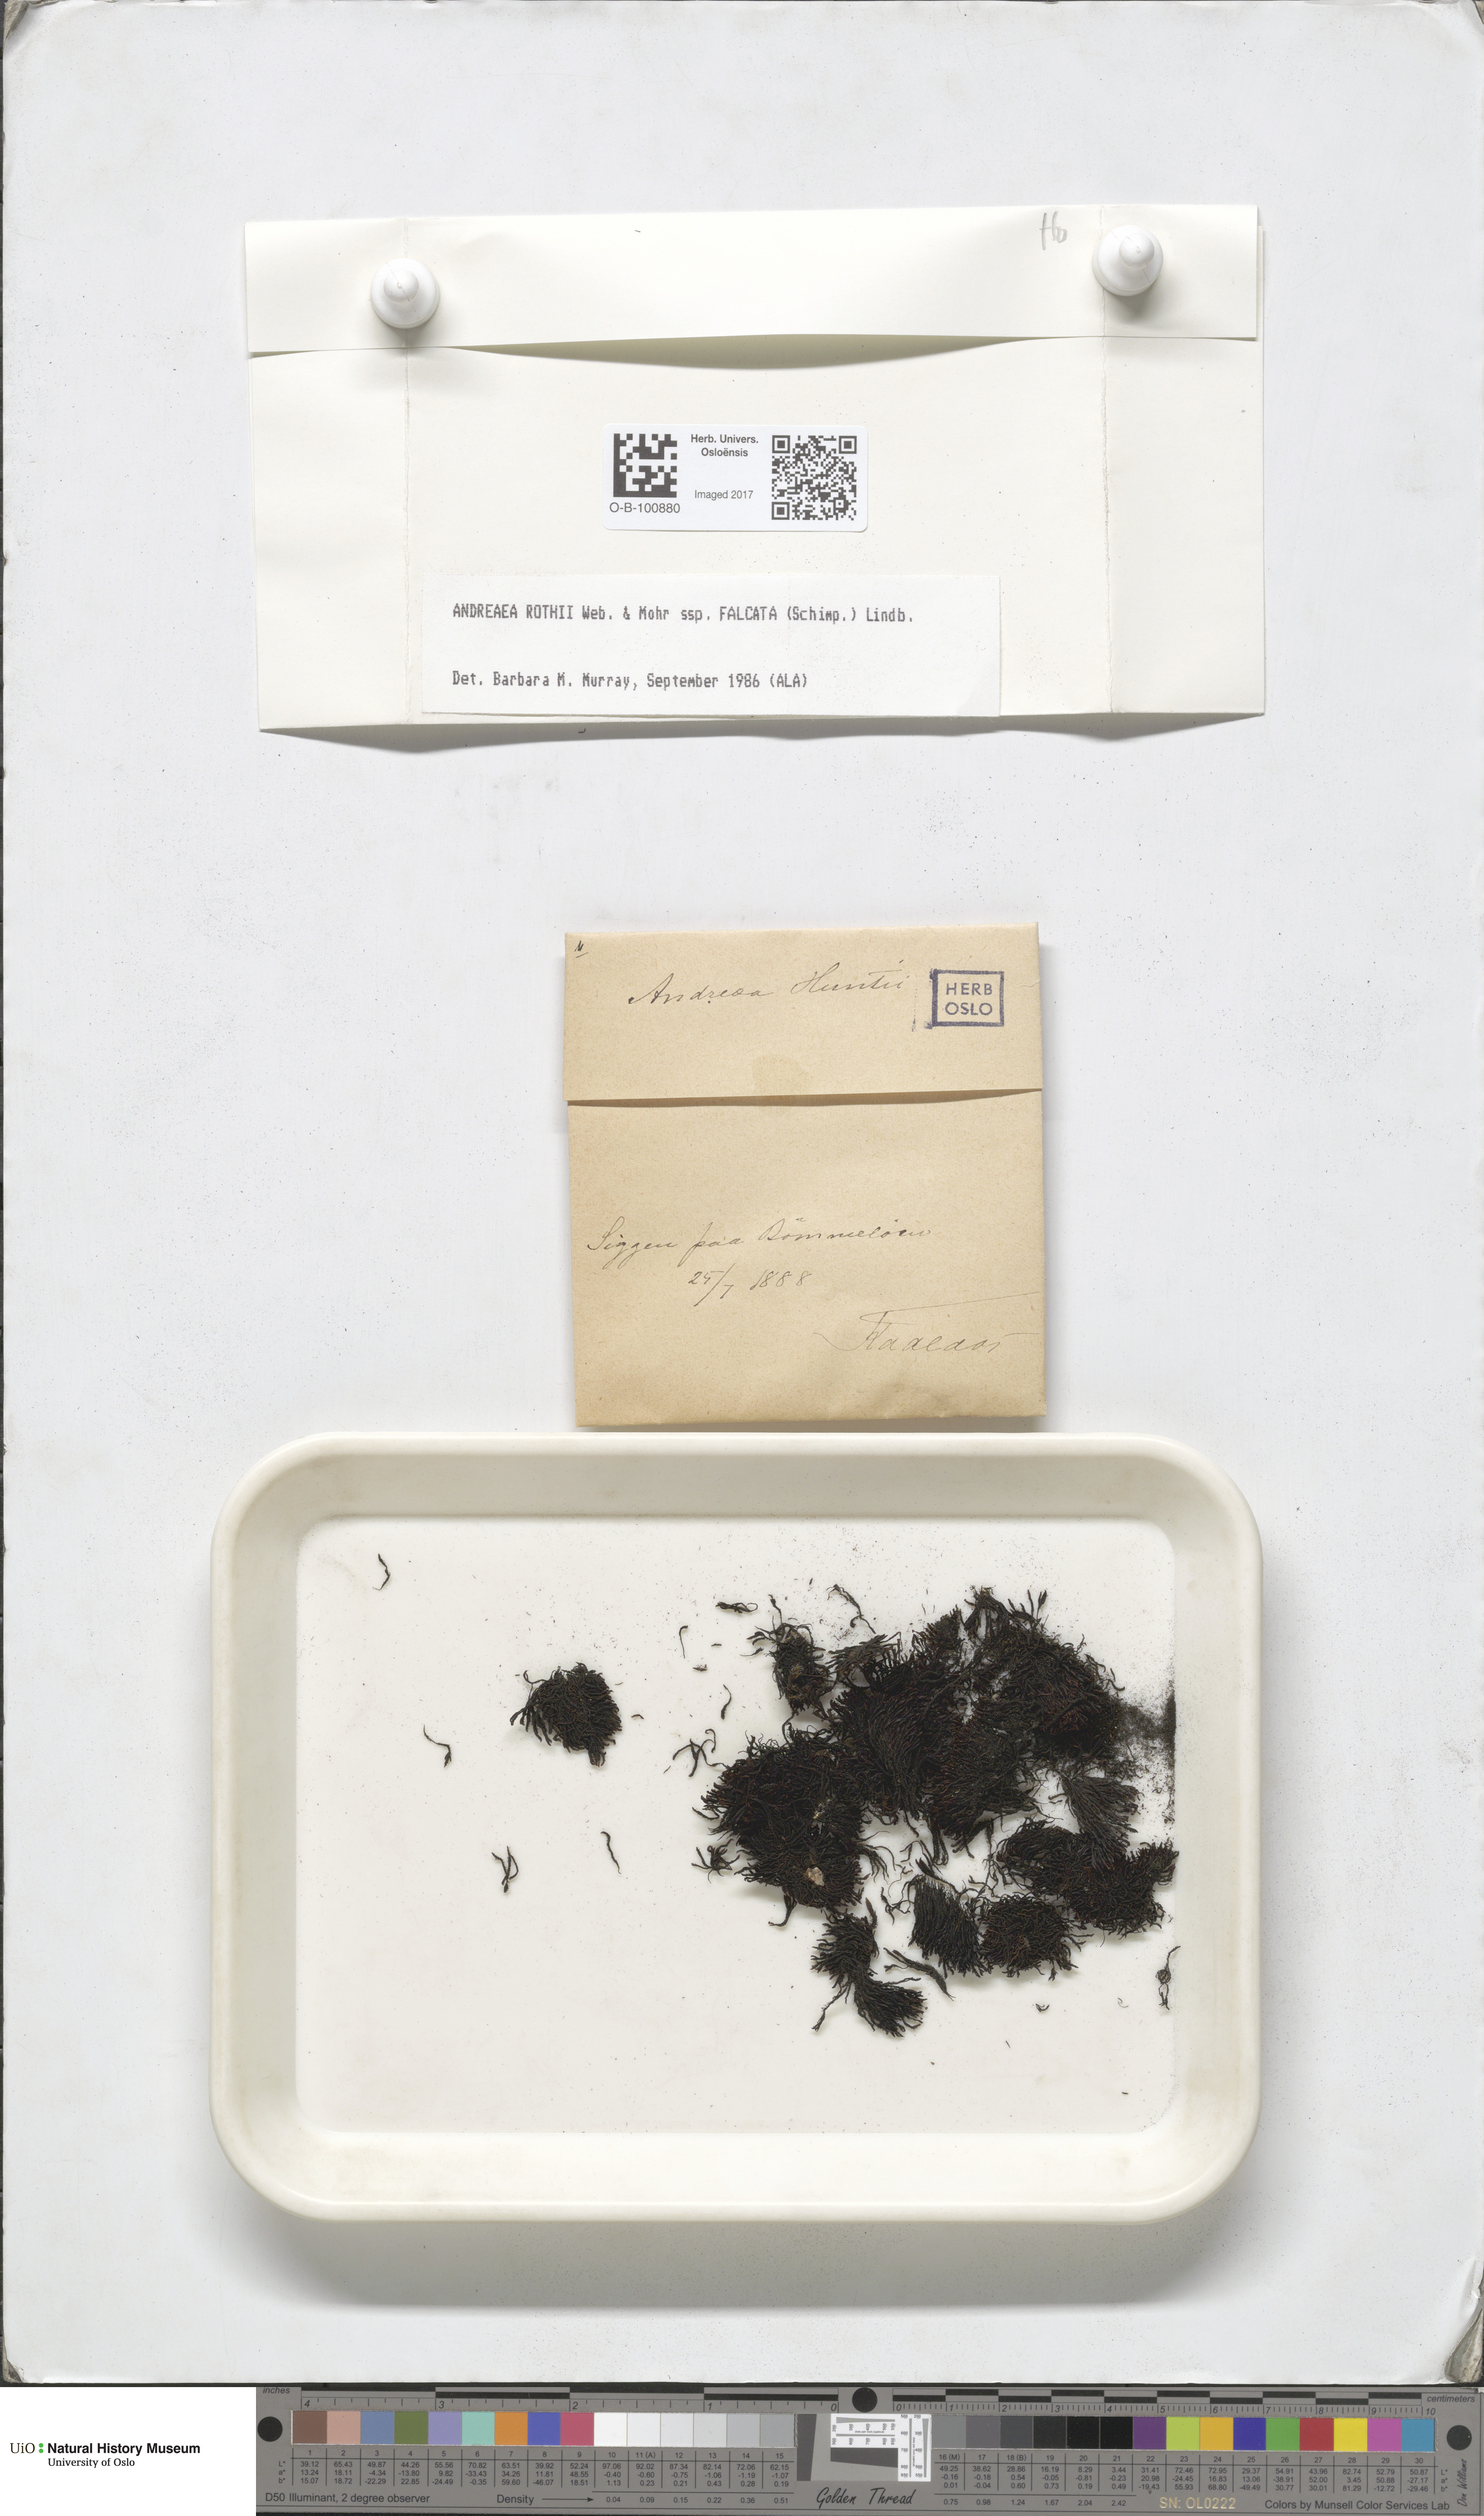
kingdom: Plantae
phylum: Bryophyta
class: Andreaeopsida
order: Andreaeales
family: Andreaeaceae
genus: Andreaea
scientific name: Andreaea rothii
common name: Dusky rock moss
